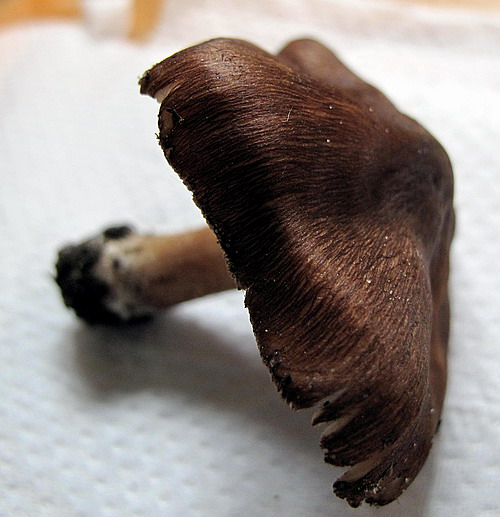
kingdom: Fungi
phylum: Basidiomycota
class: Agaricomycetes
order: Agaricales
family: Inocybaceae
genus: Inosperma
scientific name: Inosperma
